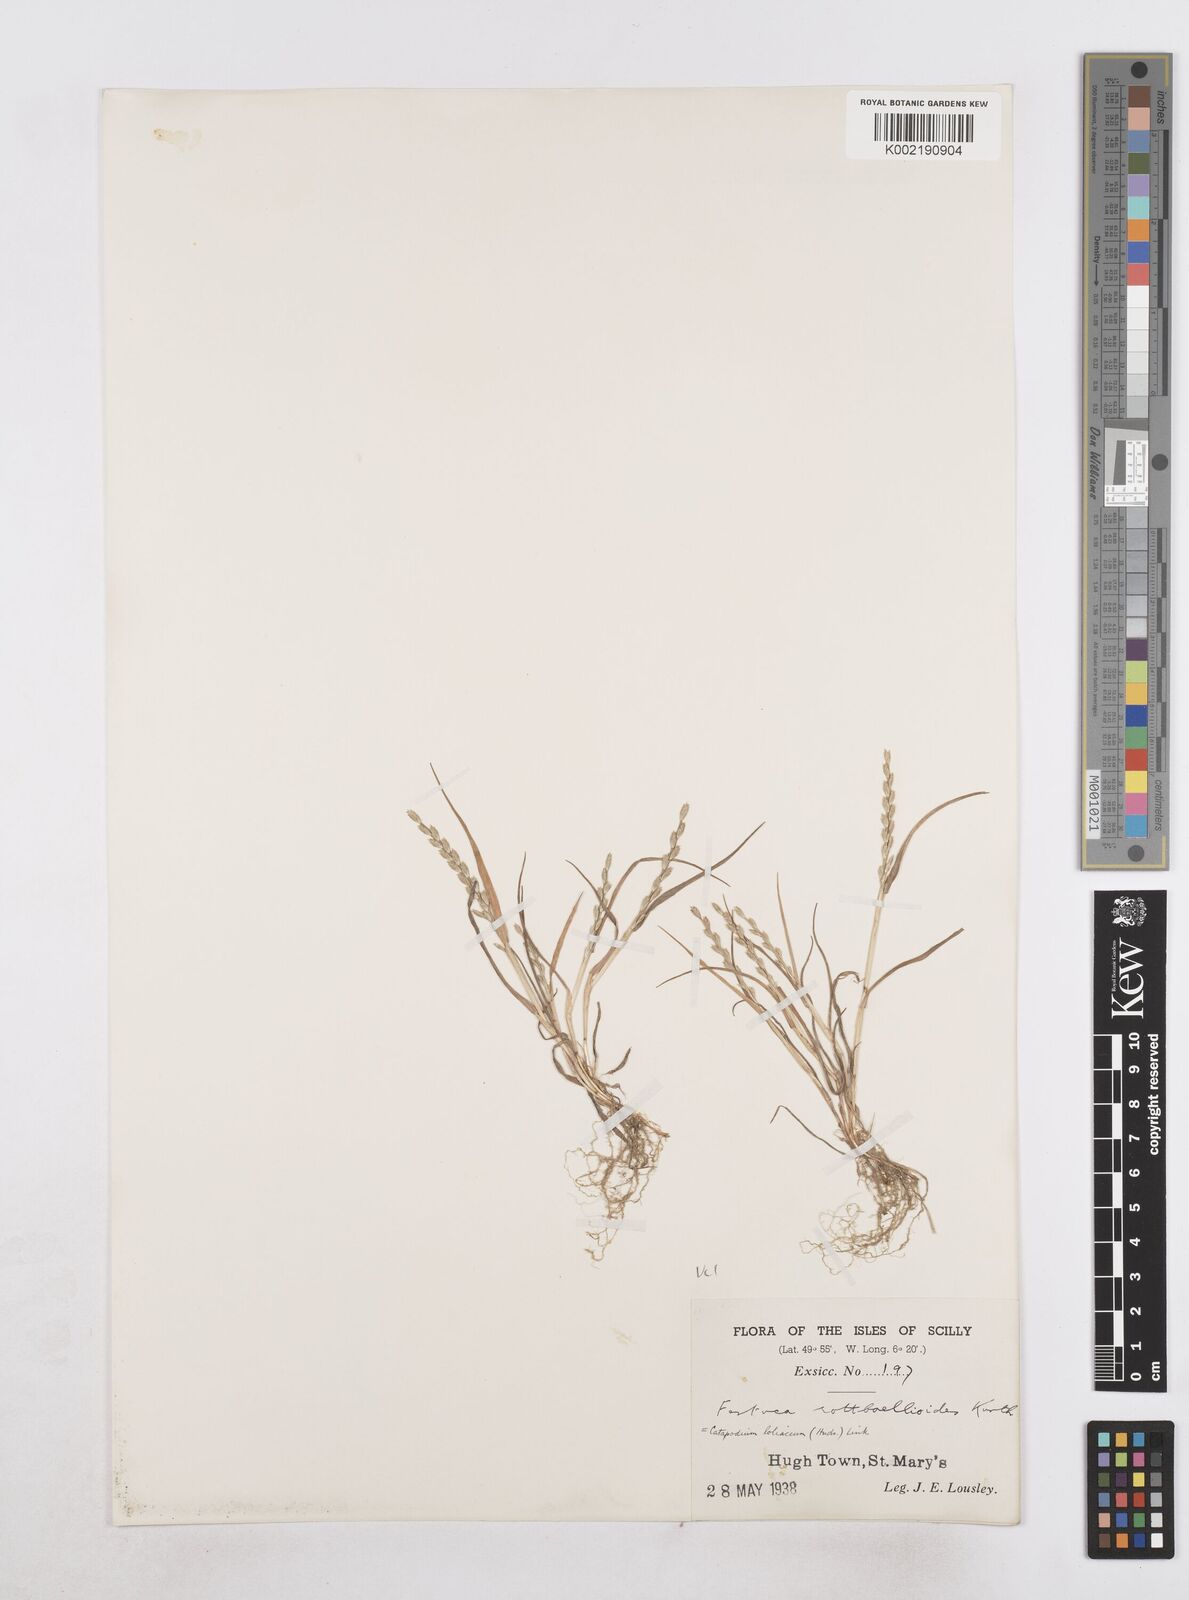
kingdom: Plantae
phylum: Tracheophyta
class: Liliopsida
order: Poales
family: Poaceae
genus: Catapodium
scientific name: Catapodium marinum
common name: Sea fern-grass
